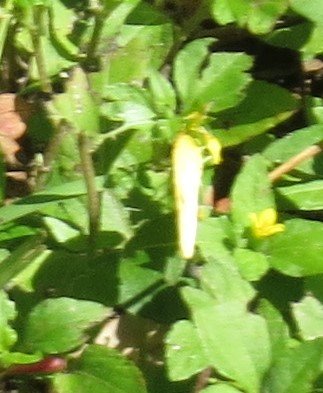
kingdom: Animalia
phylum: Arthropoda
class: Insecta
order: Lepidoptera
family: Pieridae
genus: Pyrisitia
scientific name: Pyrisitia lisa
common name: Little Yellow
